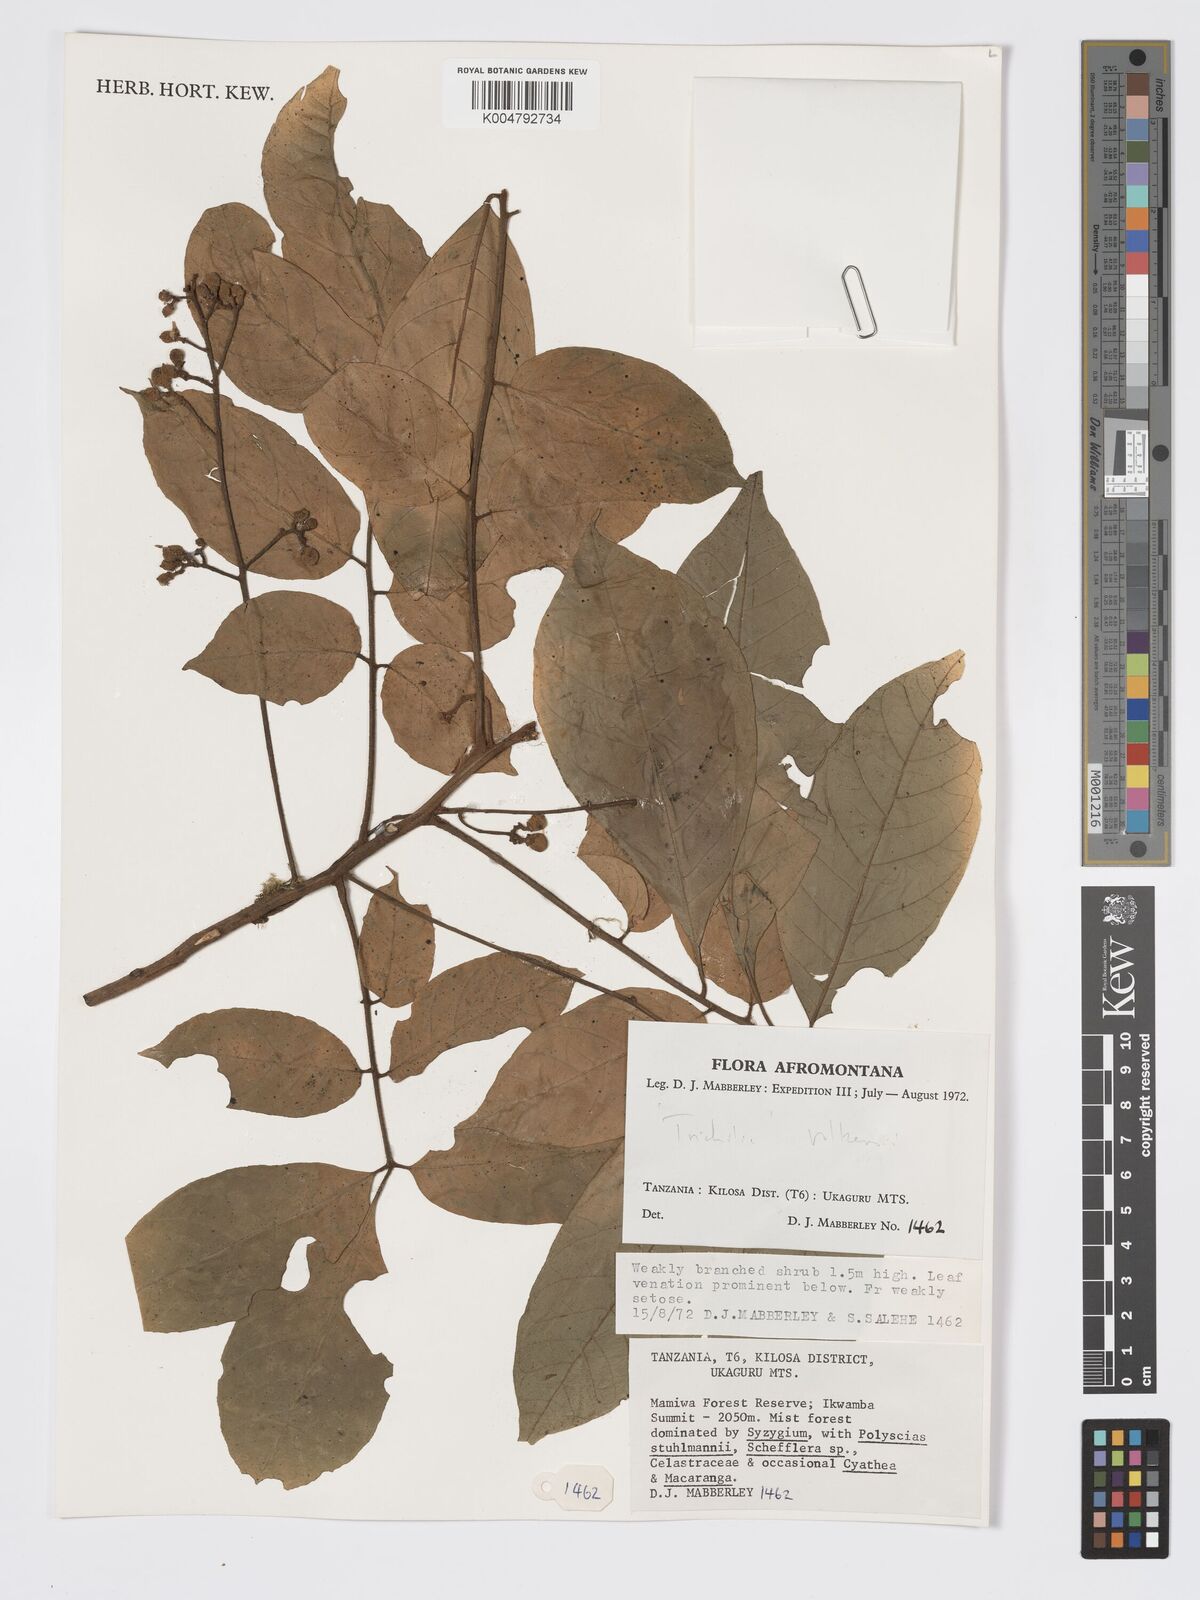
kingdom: Plantae
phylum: Tracheophyta
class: Magnoliopsida
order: Sapindales
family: Meliaceae
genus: Lepidotrichilia
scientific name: Lepidotrichilia volkensii
